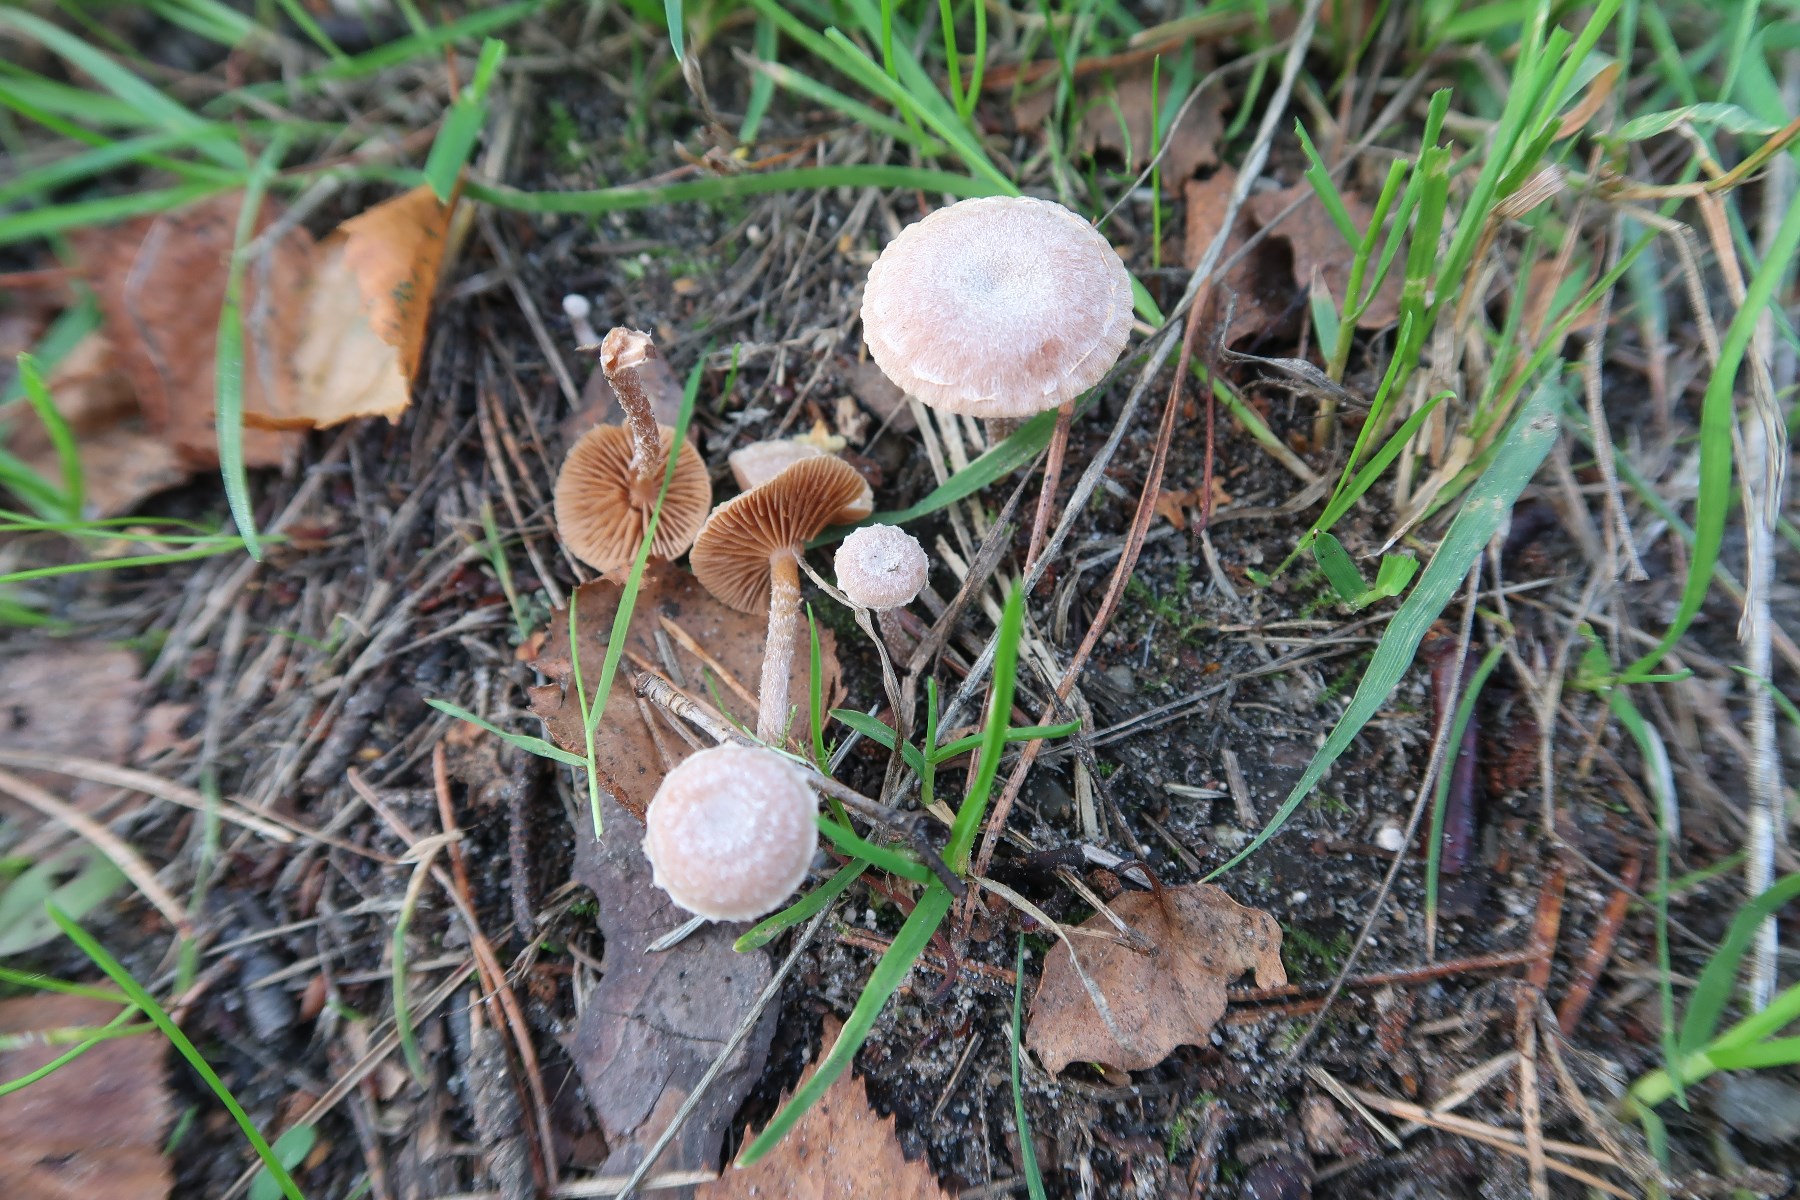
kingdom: Fungi
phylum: Basidiomycota
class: Agaricomycetes
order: Agaricales
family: Tubariaceae
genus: Tubaria
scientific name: Tubaria furfuracea
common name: kliddet fnughat
